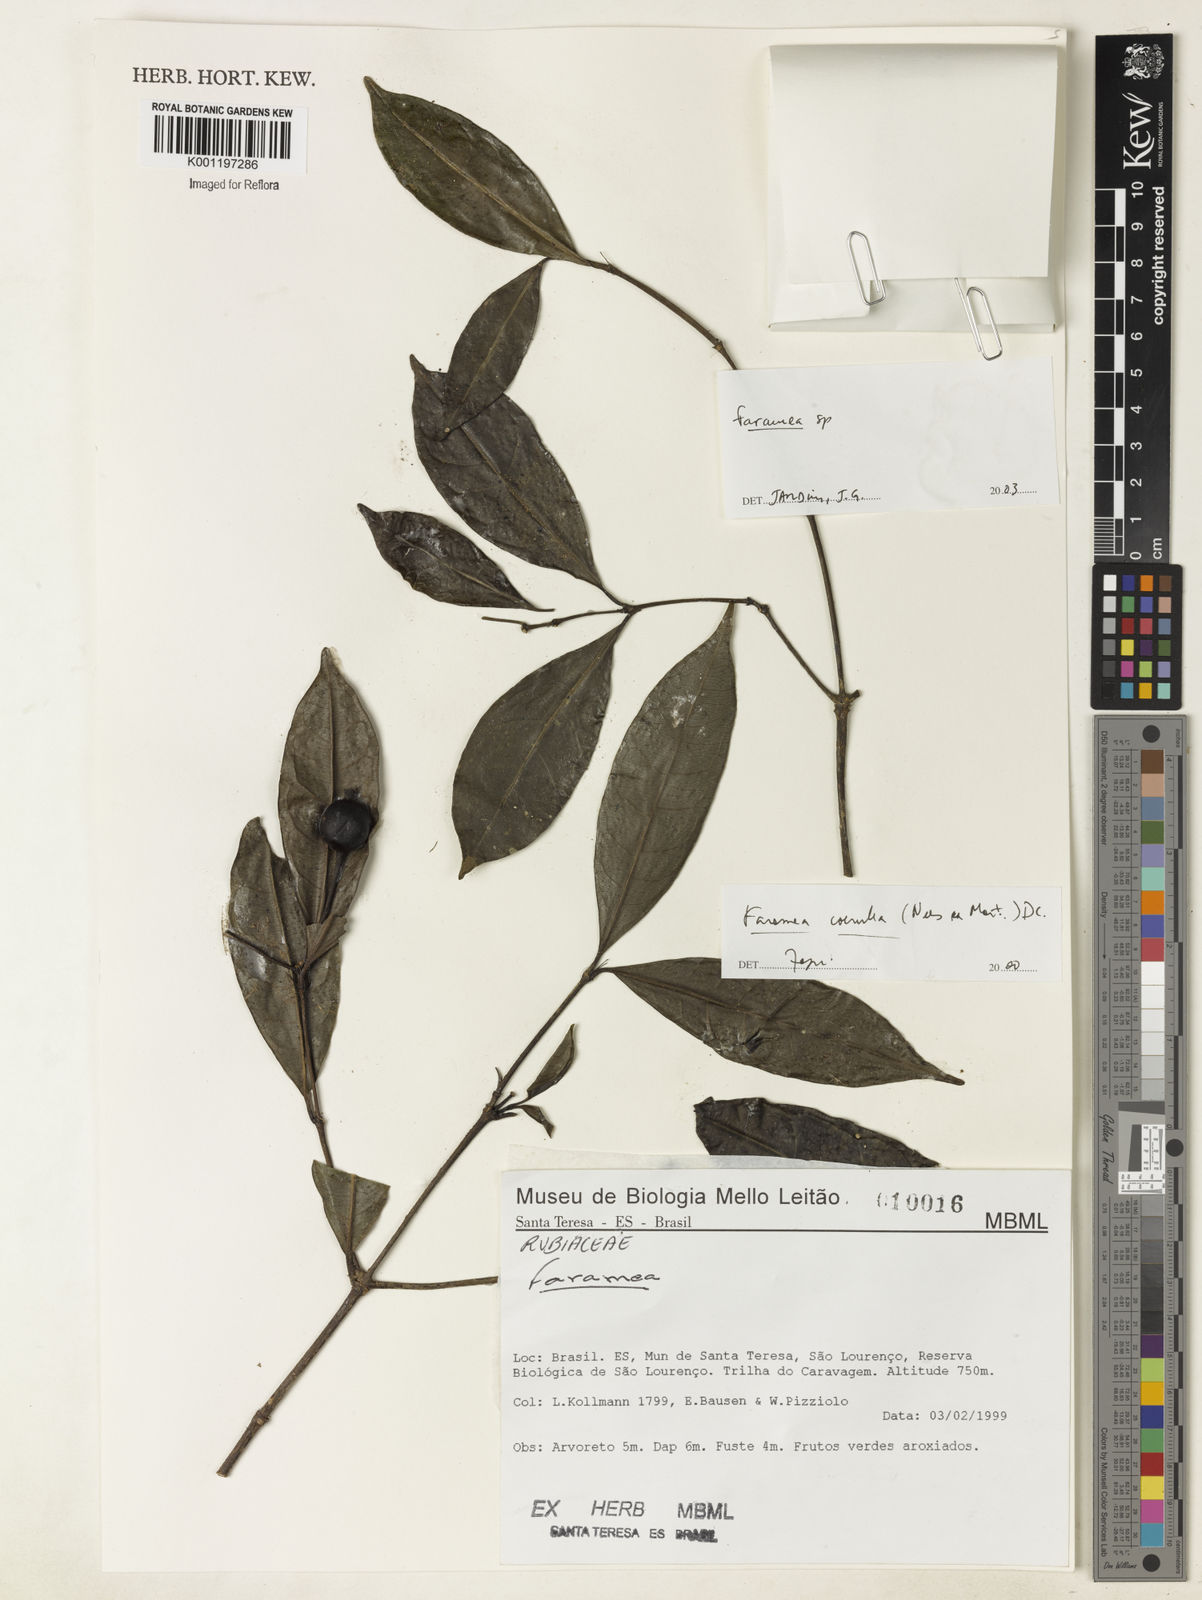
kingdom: Plantae
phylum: Tracheophyta
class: Magnoliopsida
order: Gentianales
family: Rubiaceae
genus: Faramea
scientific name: Faramea
